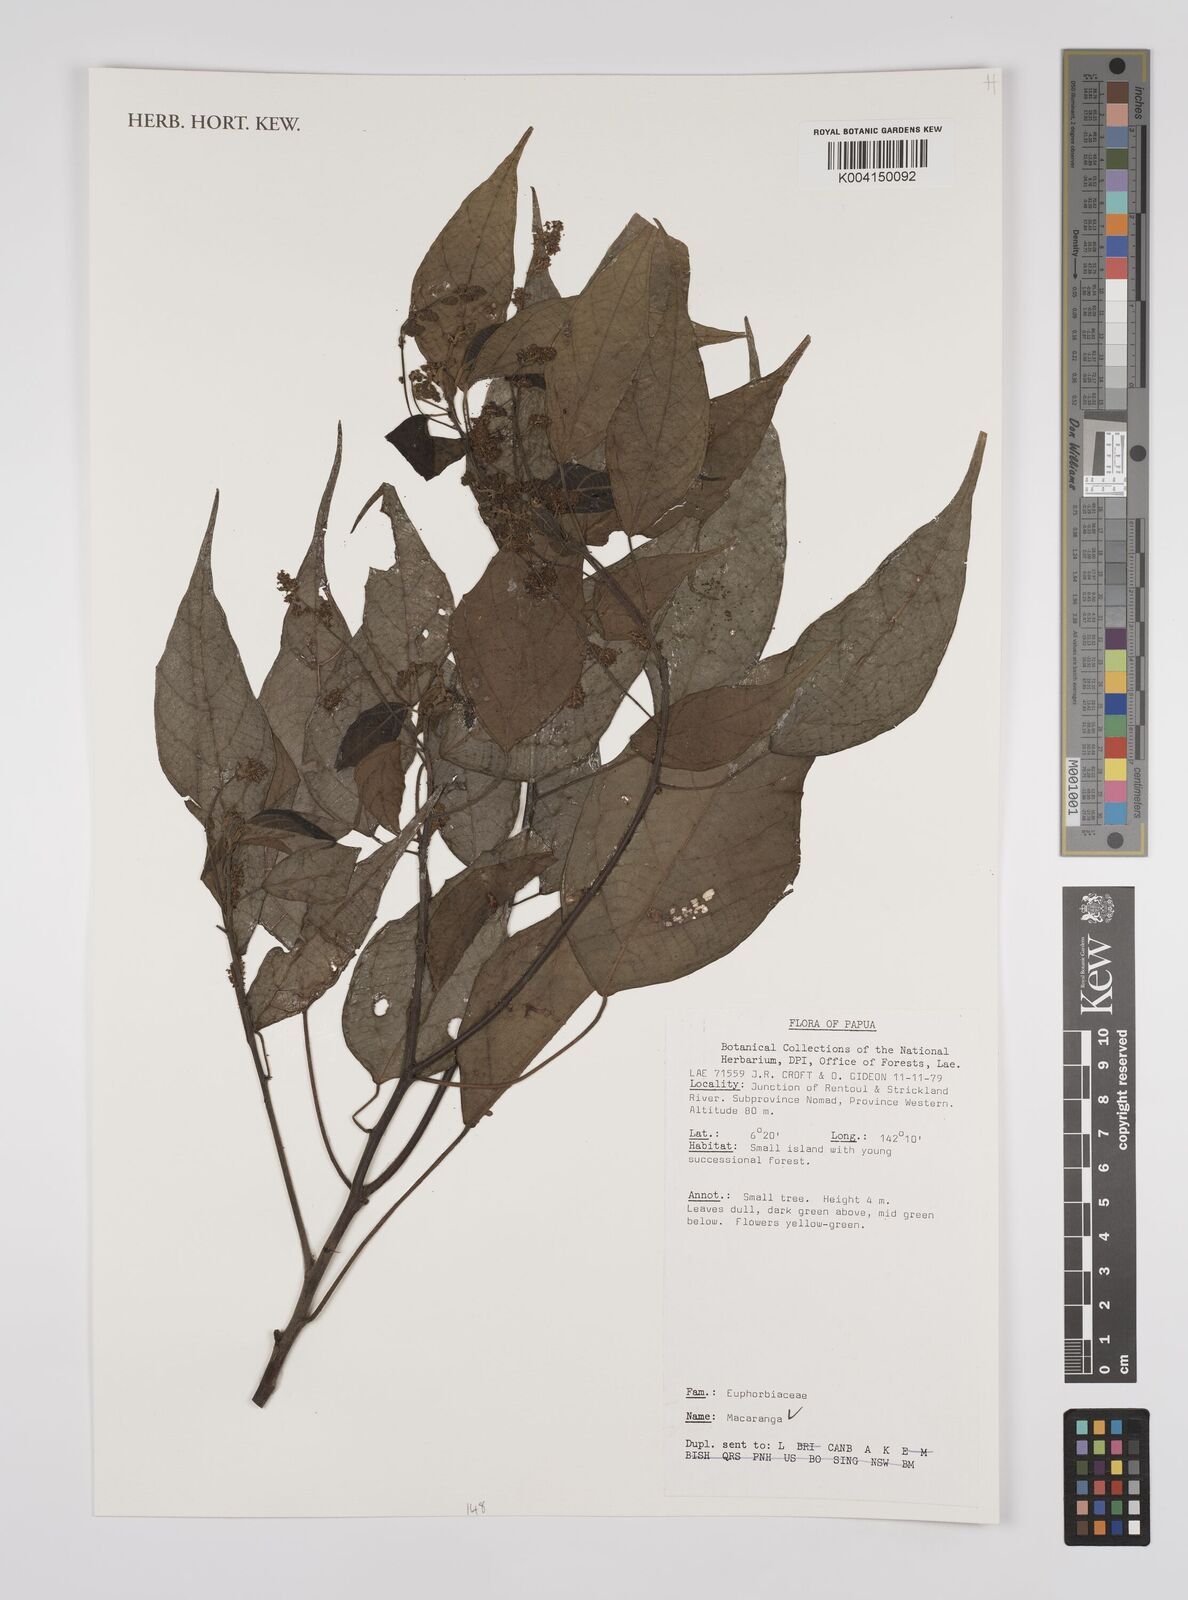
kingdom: Plantae
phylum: Tracheophyta
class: Magnoliopsida
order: Malpighiales
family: Euphorbiaceae
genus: Macaranga
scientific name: Macaranga
